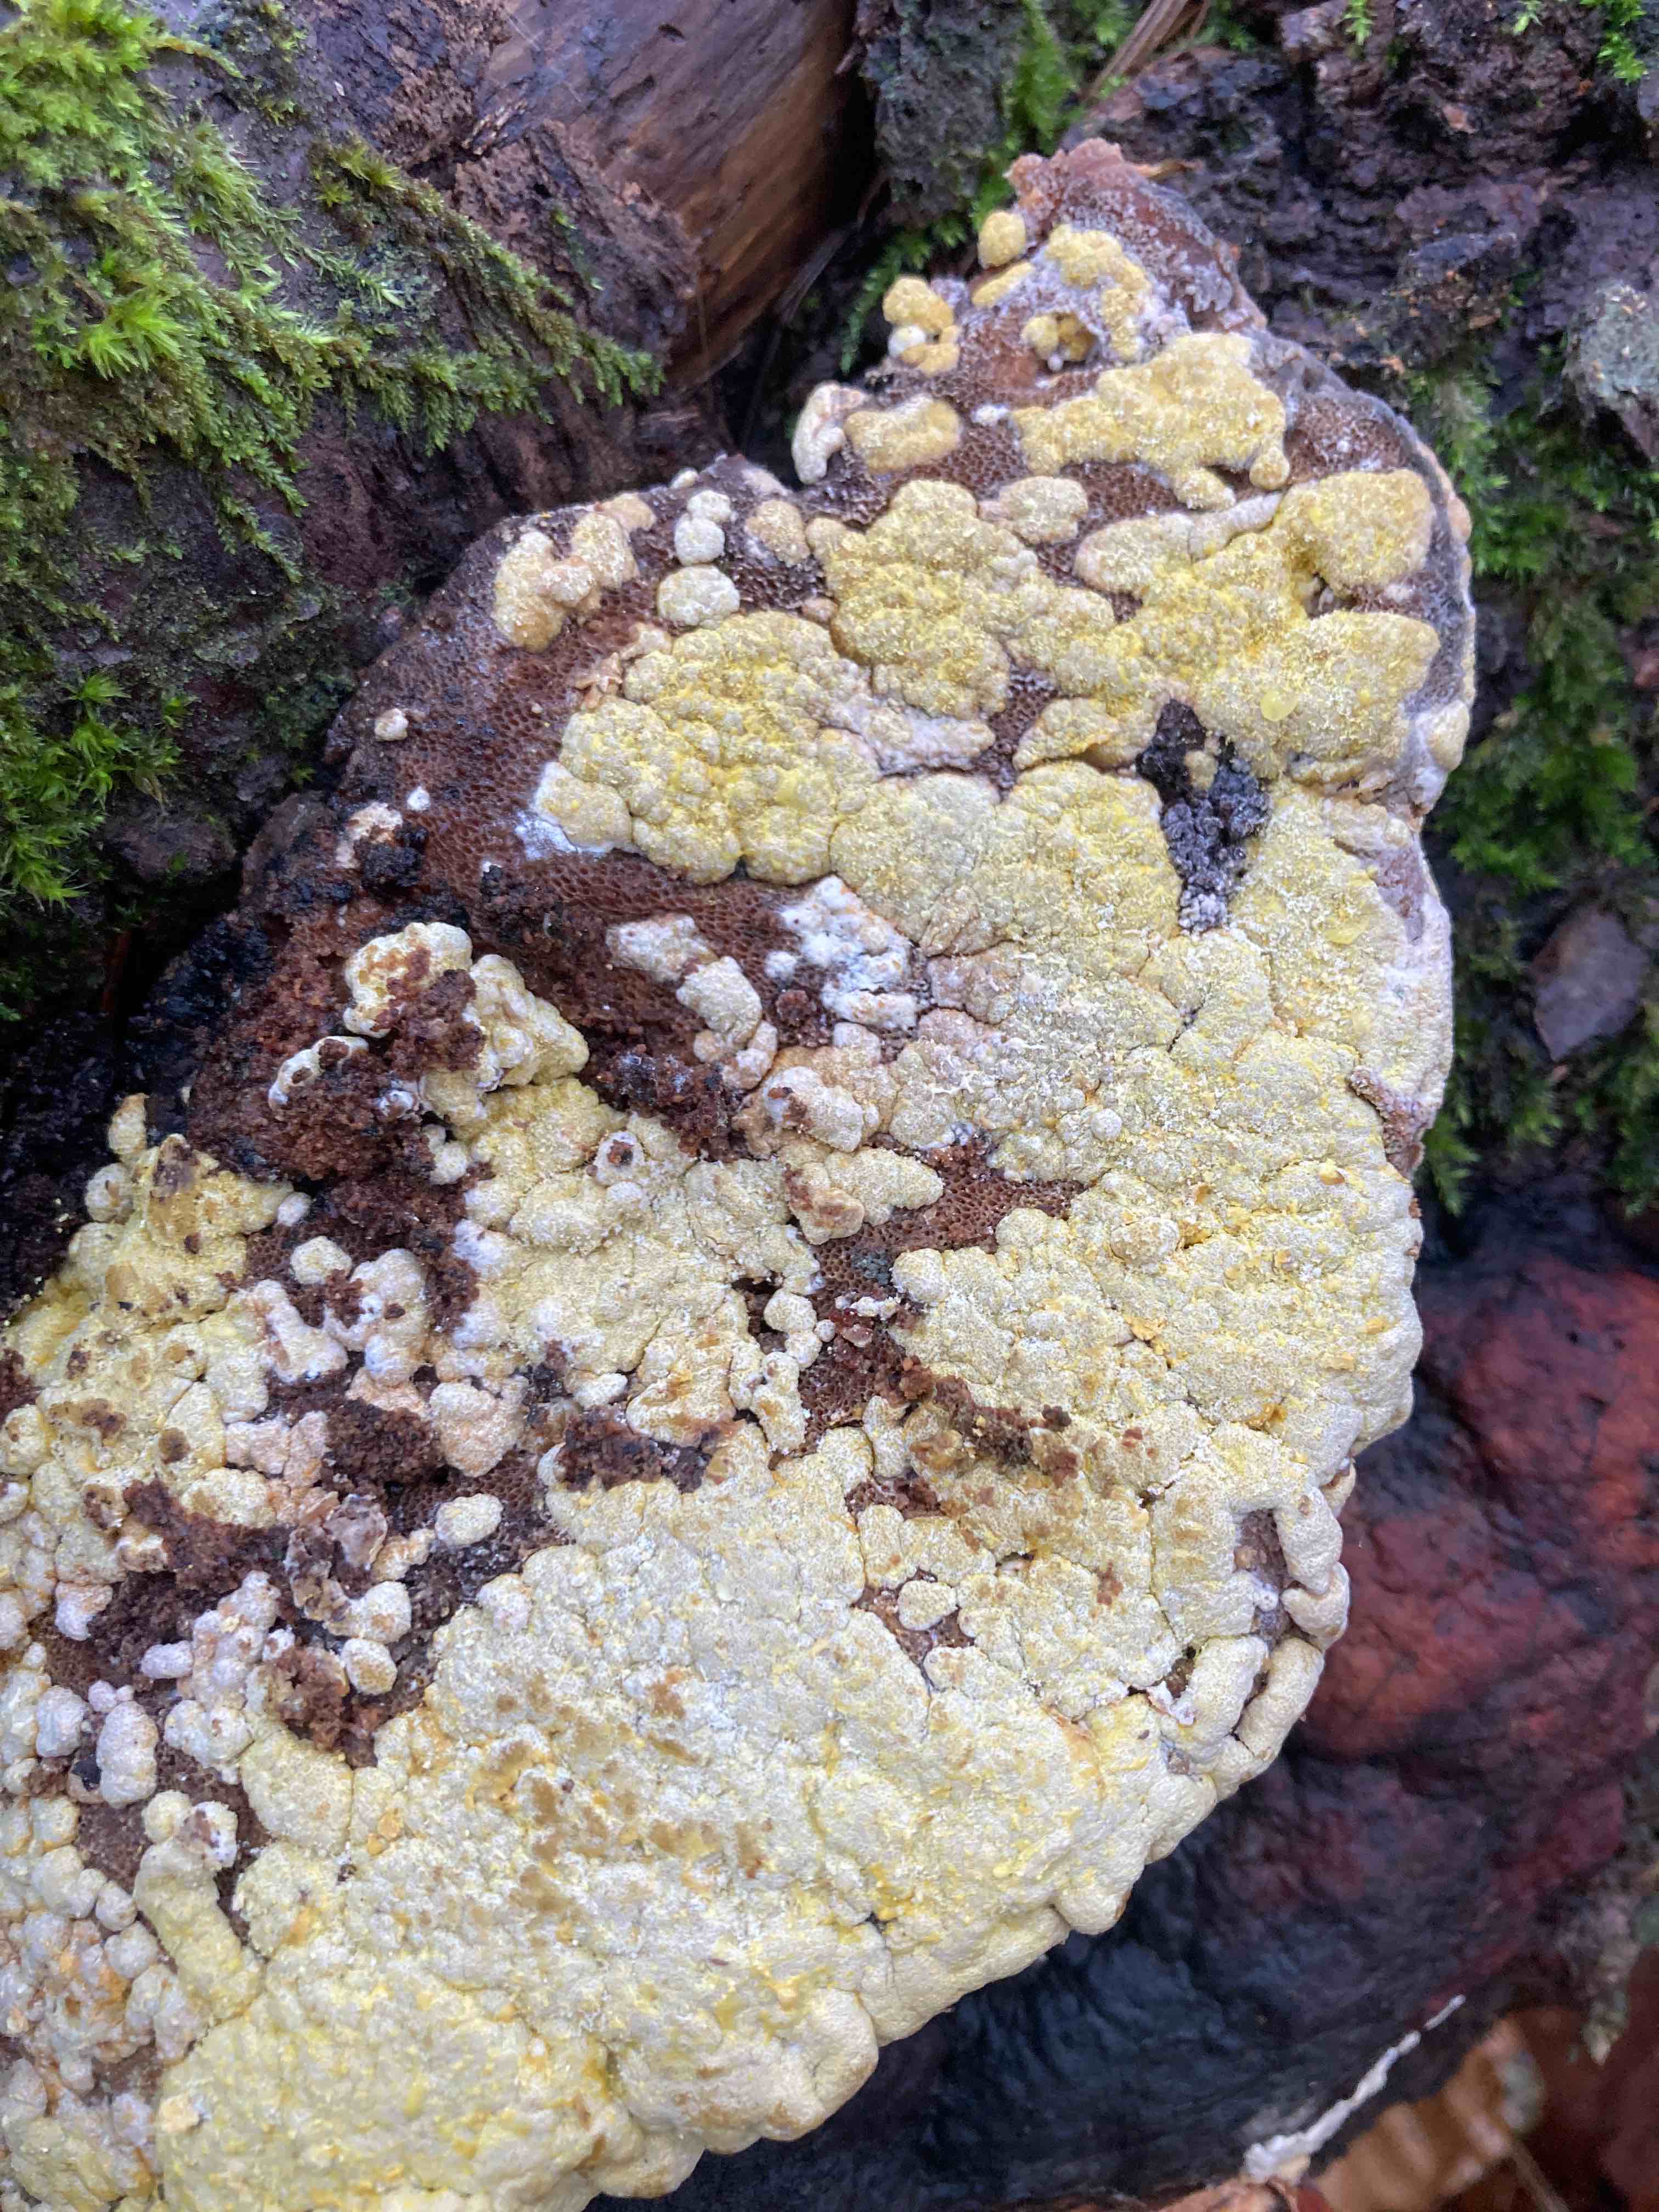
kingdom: Fungi
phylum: Ascomycota
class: Sordariomycetes
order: Hypocreales
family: Hypocreaceae
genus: Trichoderma
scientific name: Trichoderma pulvinatum
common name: snyltende kødkerne
